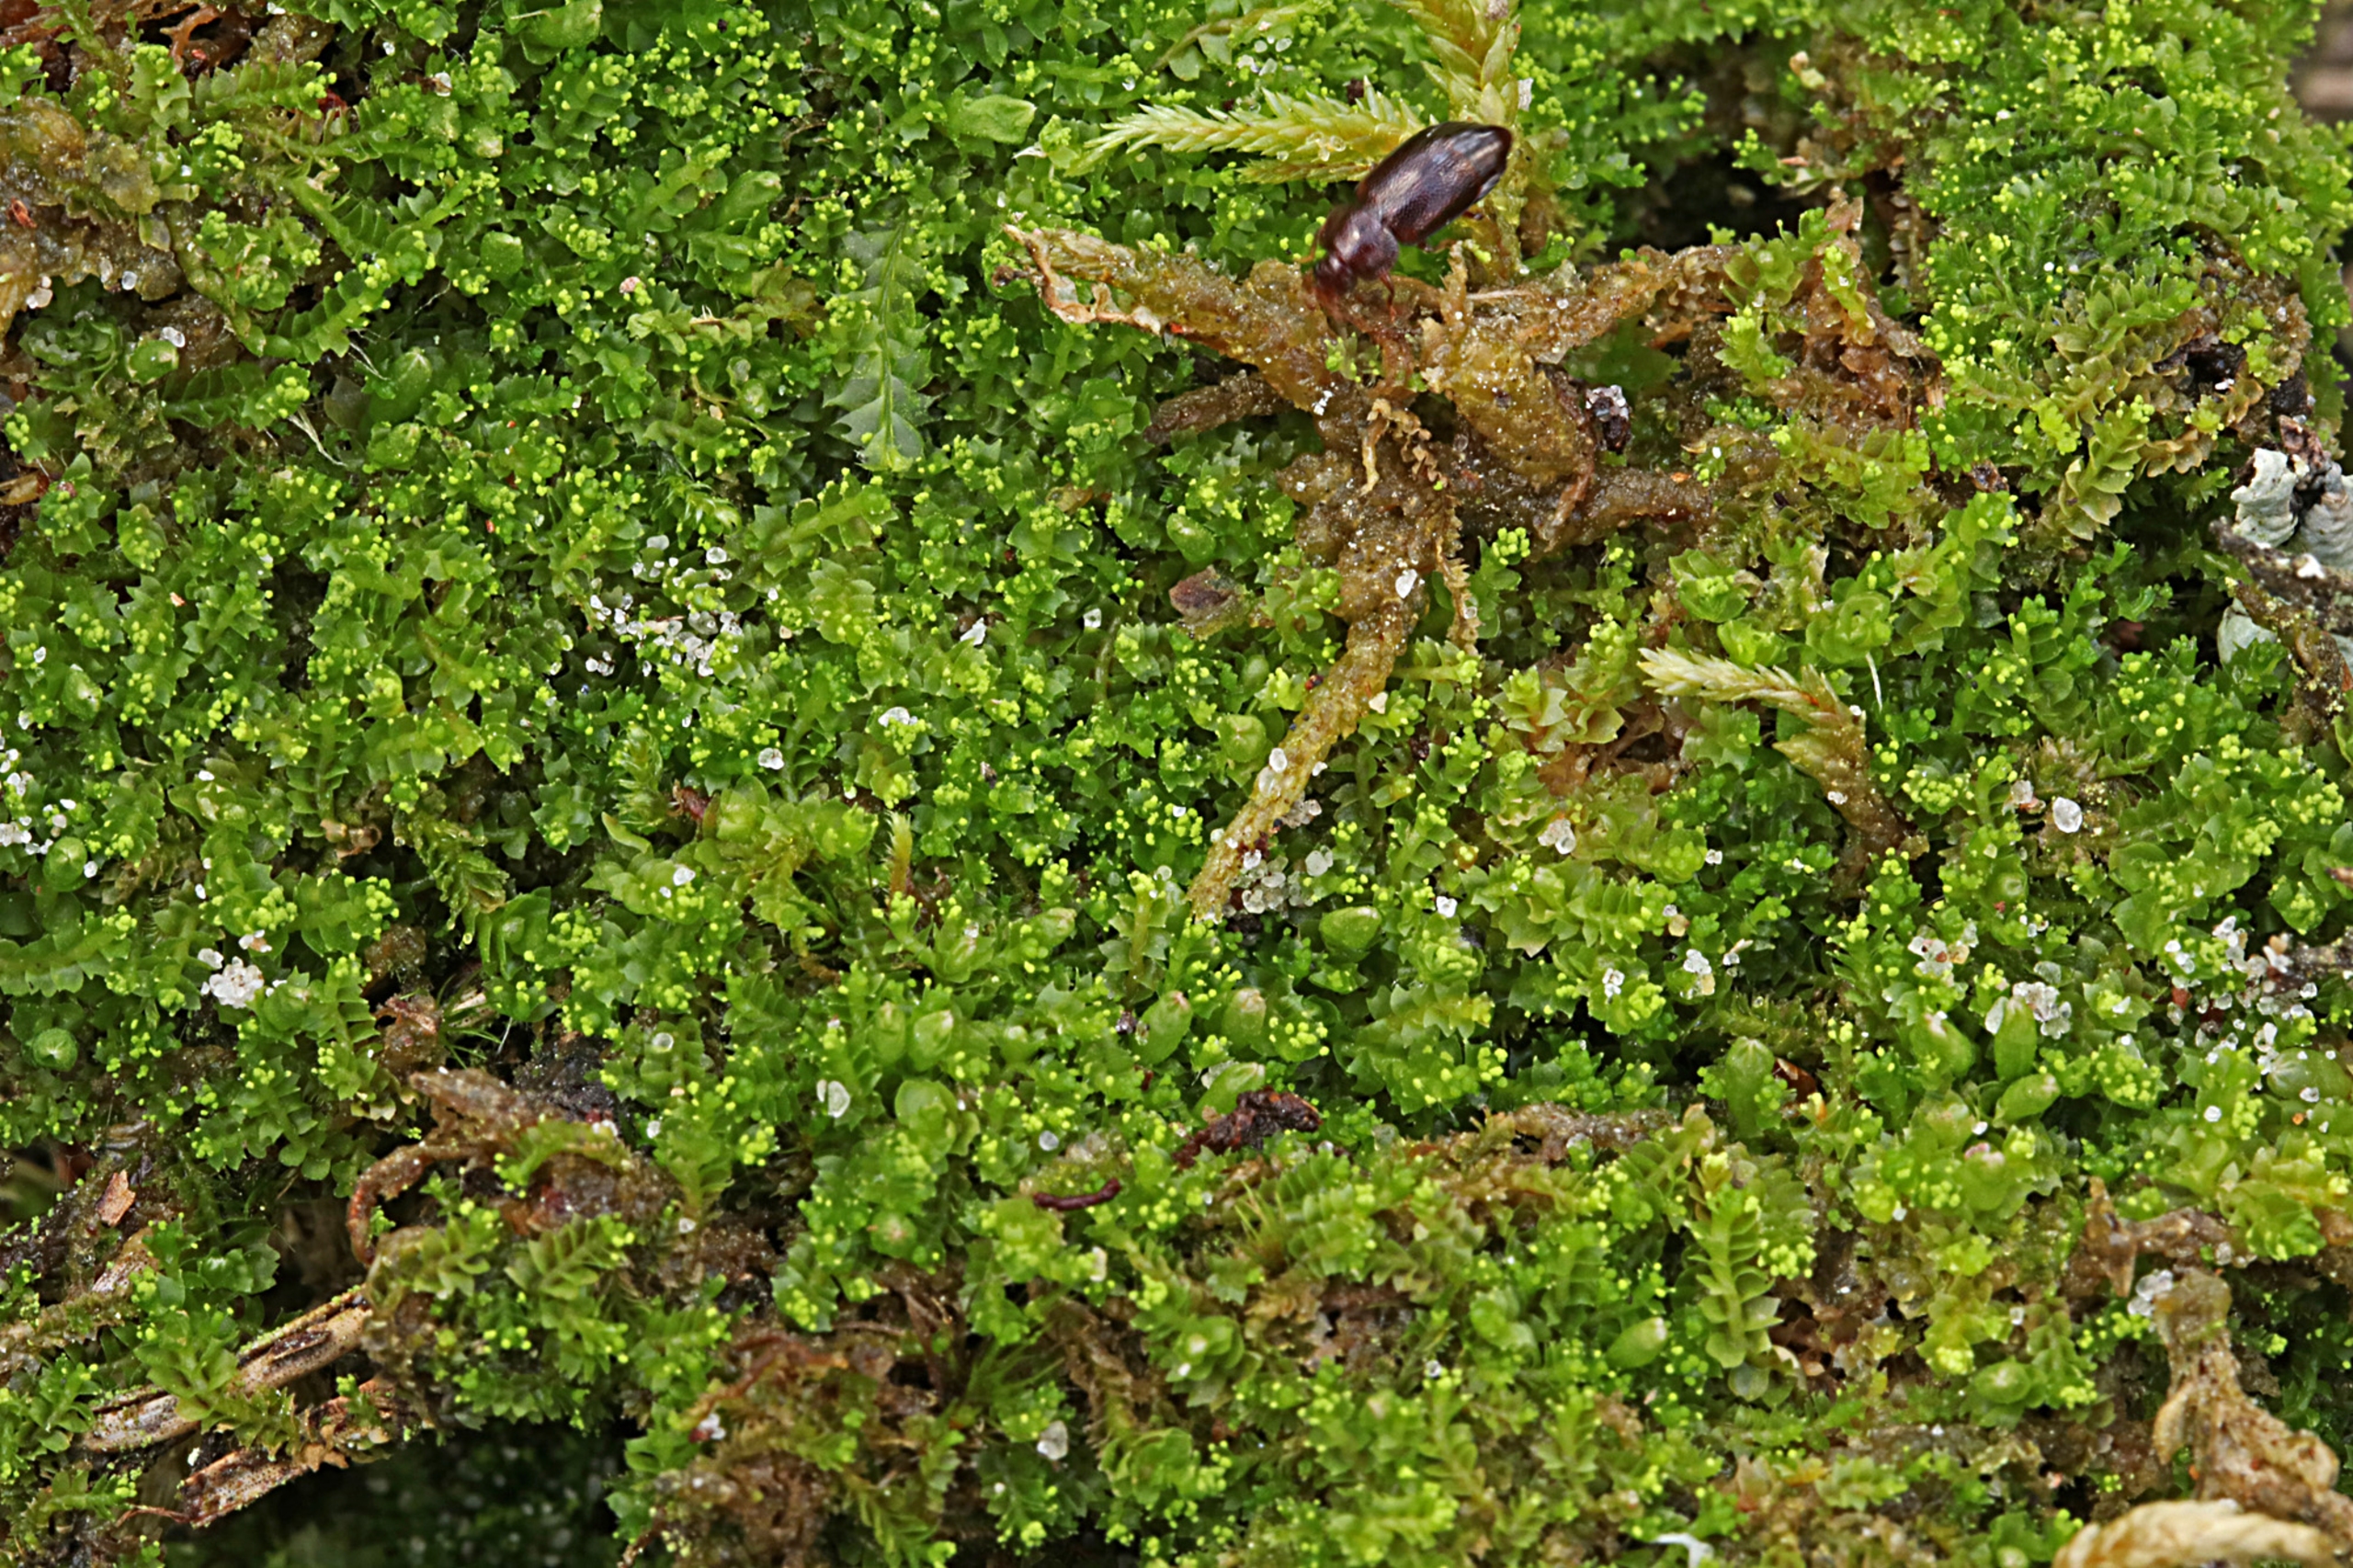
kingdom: Plantae
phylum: Marchantiophyta
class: Jungermanniopsida
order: Jungermanniales
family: Lophoziaceae
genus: Lophozia
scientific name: Lophozia ventricosa
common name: Grønkornet foldbæger
